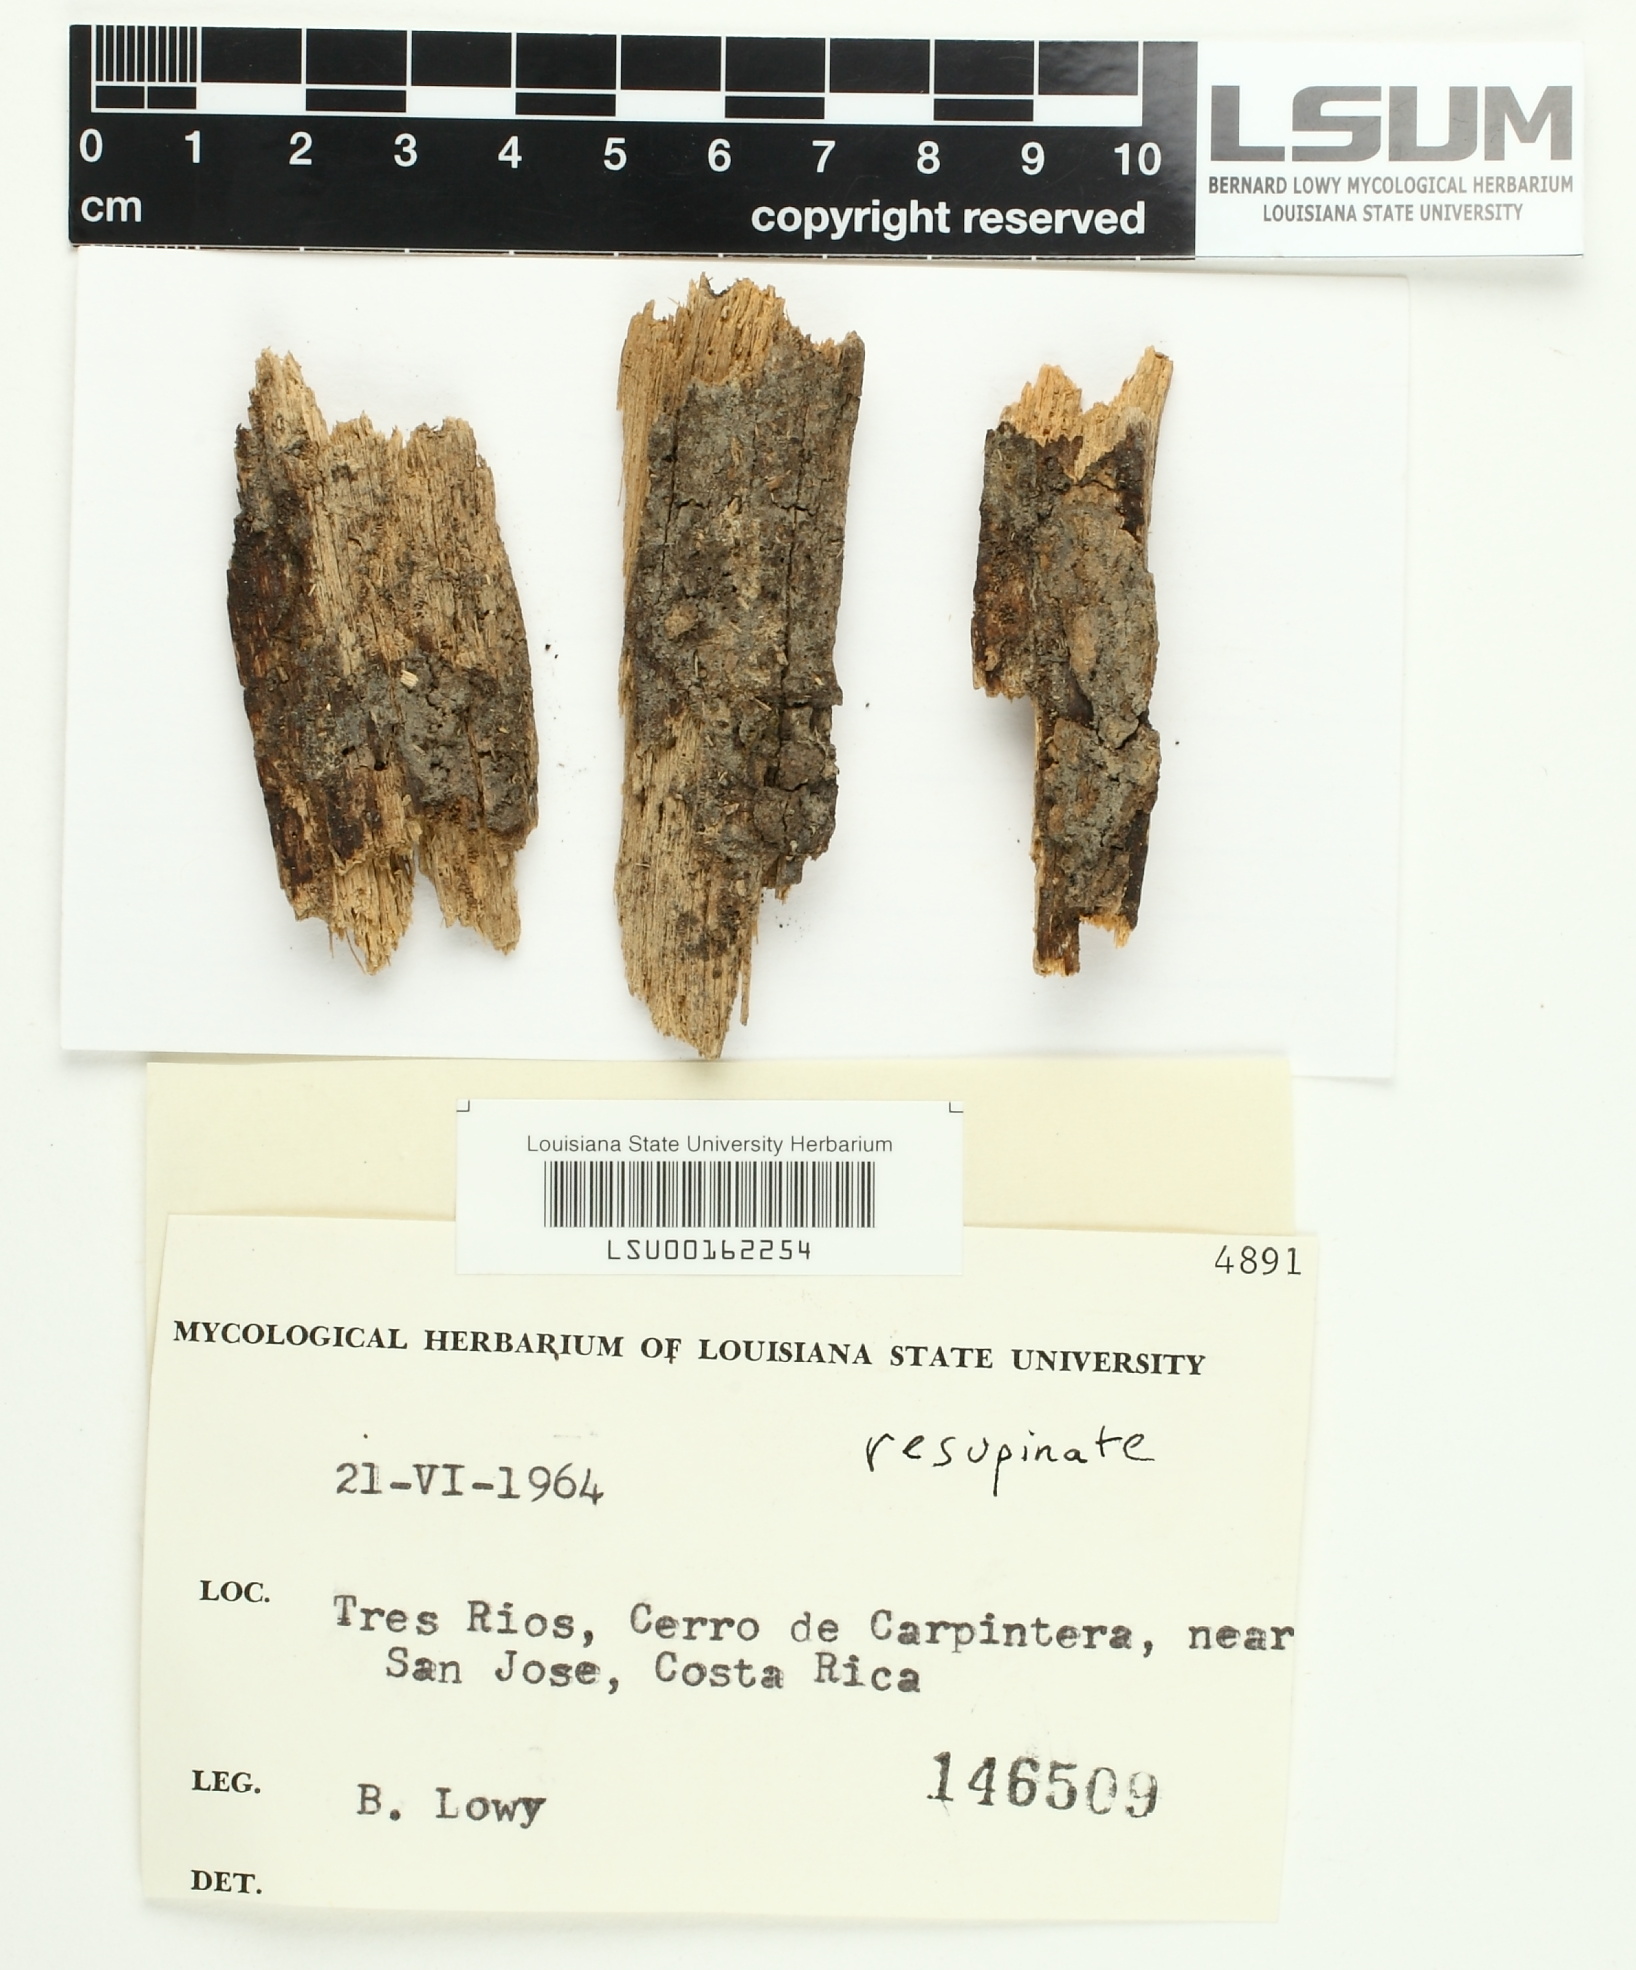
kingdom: Fungi
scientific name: Fungi
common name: Fungi
